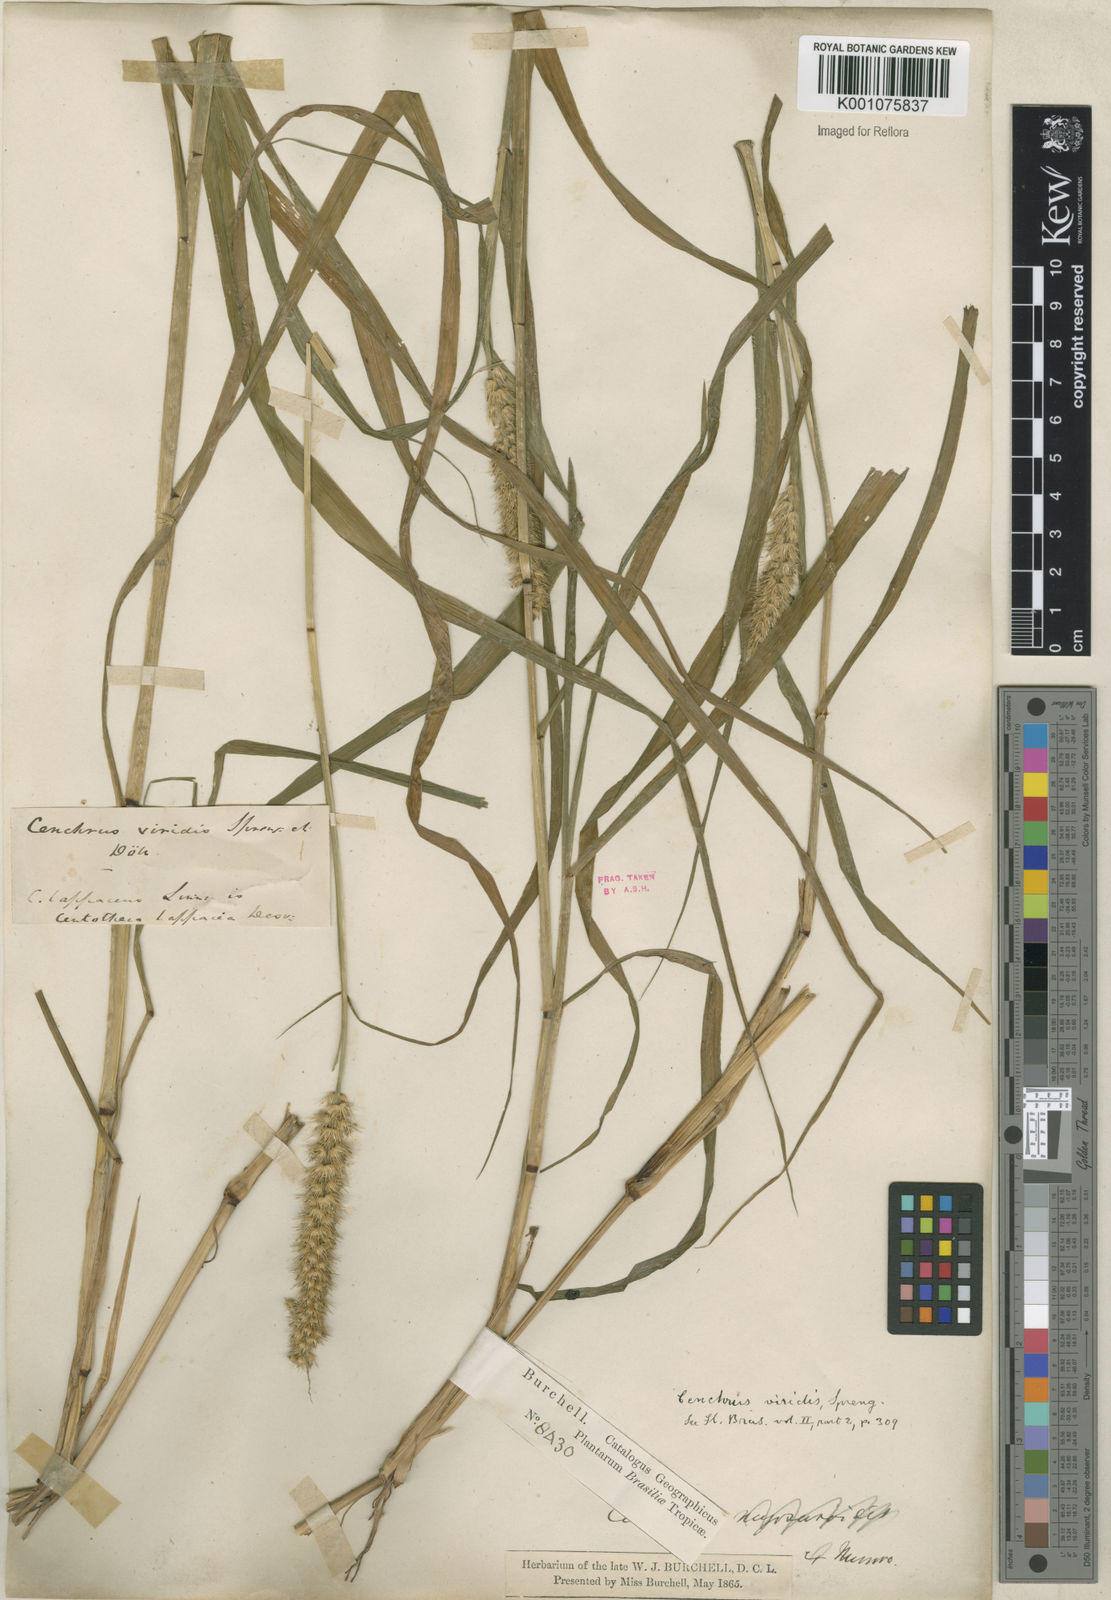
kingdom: Plantae
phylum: Tracheophyta
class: Liliopsida
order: Poales
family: Poaceae
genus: Cenchrus
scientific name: Cenchrus brownii
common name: Slim-bristle sandbur
